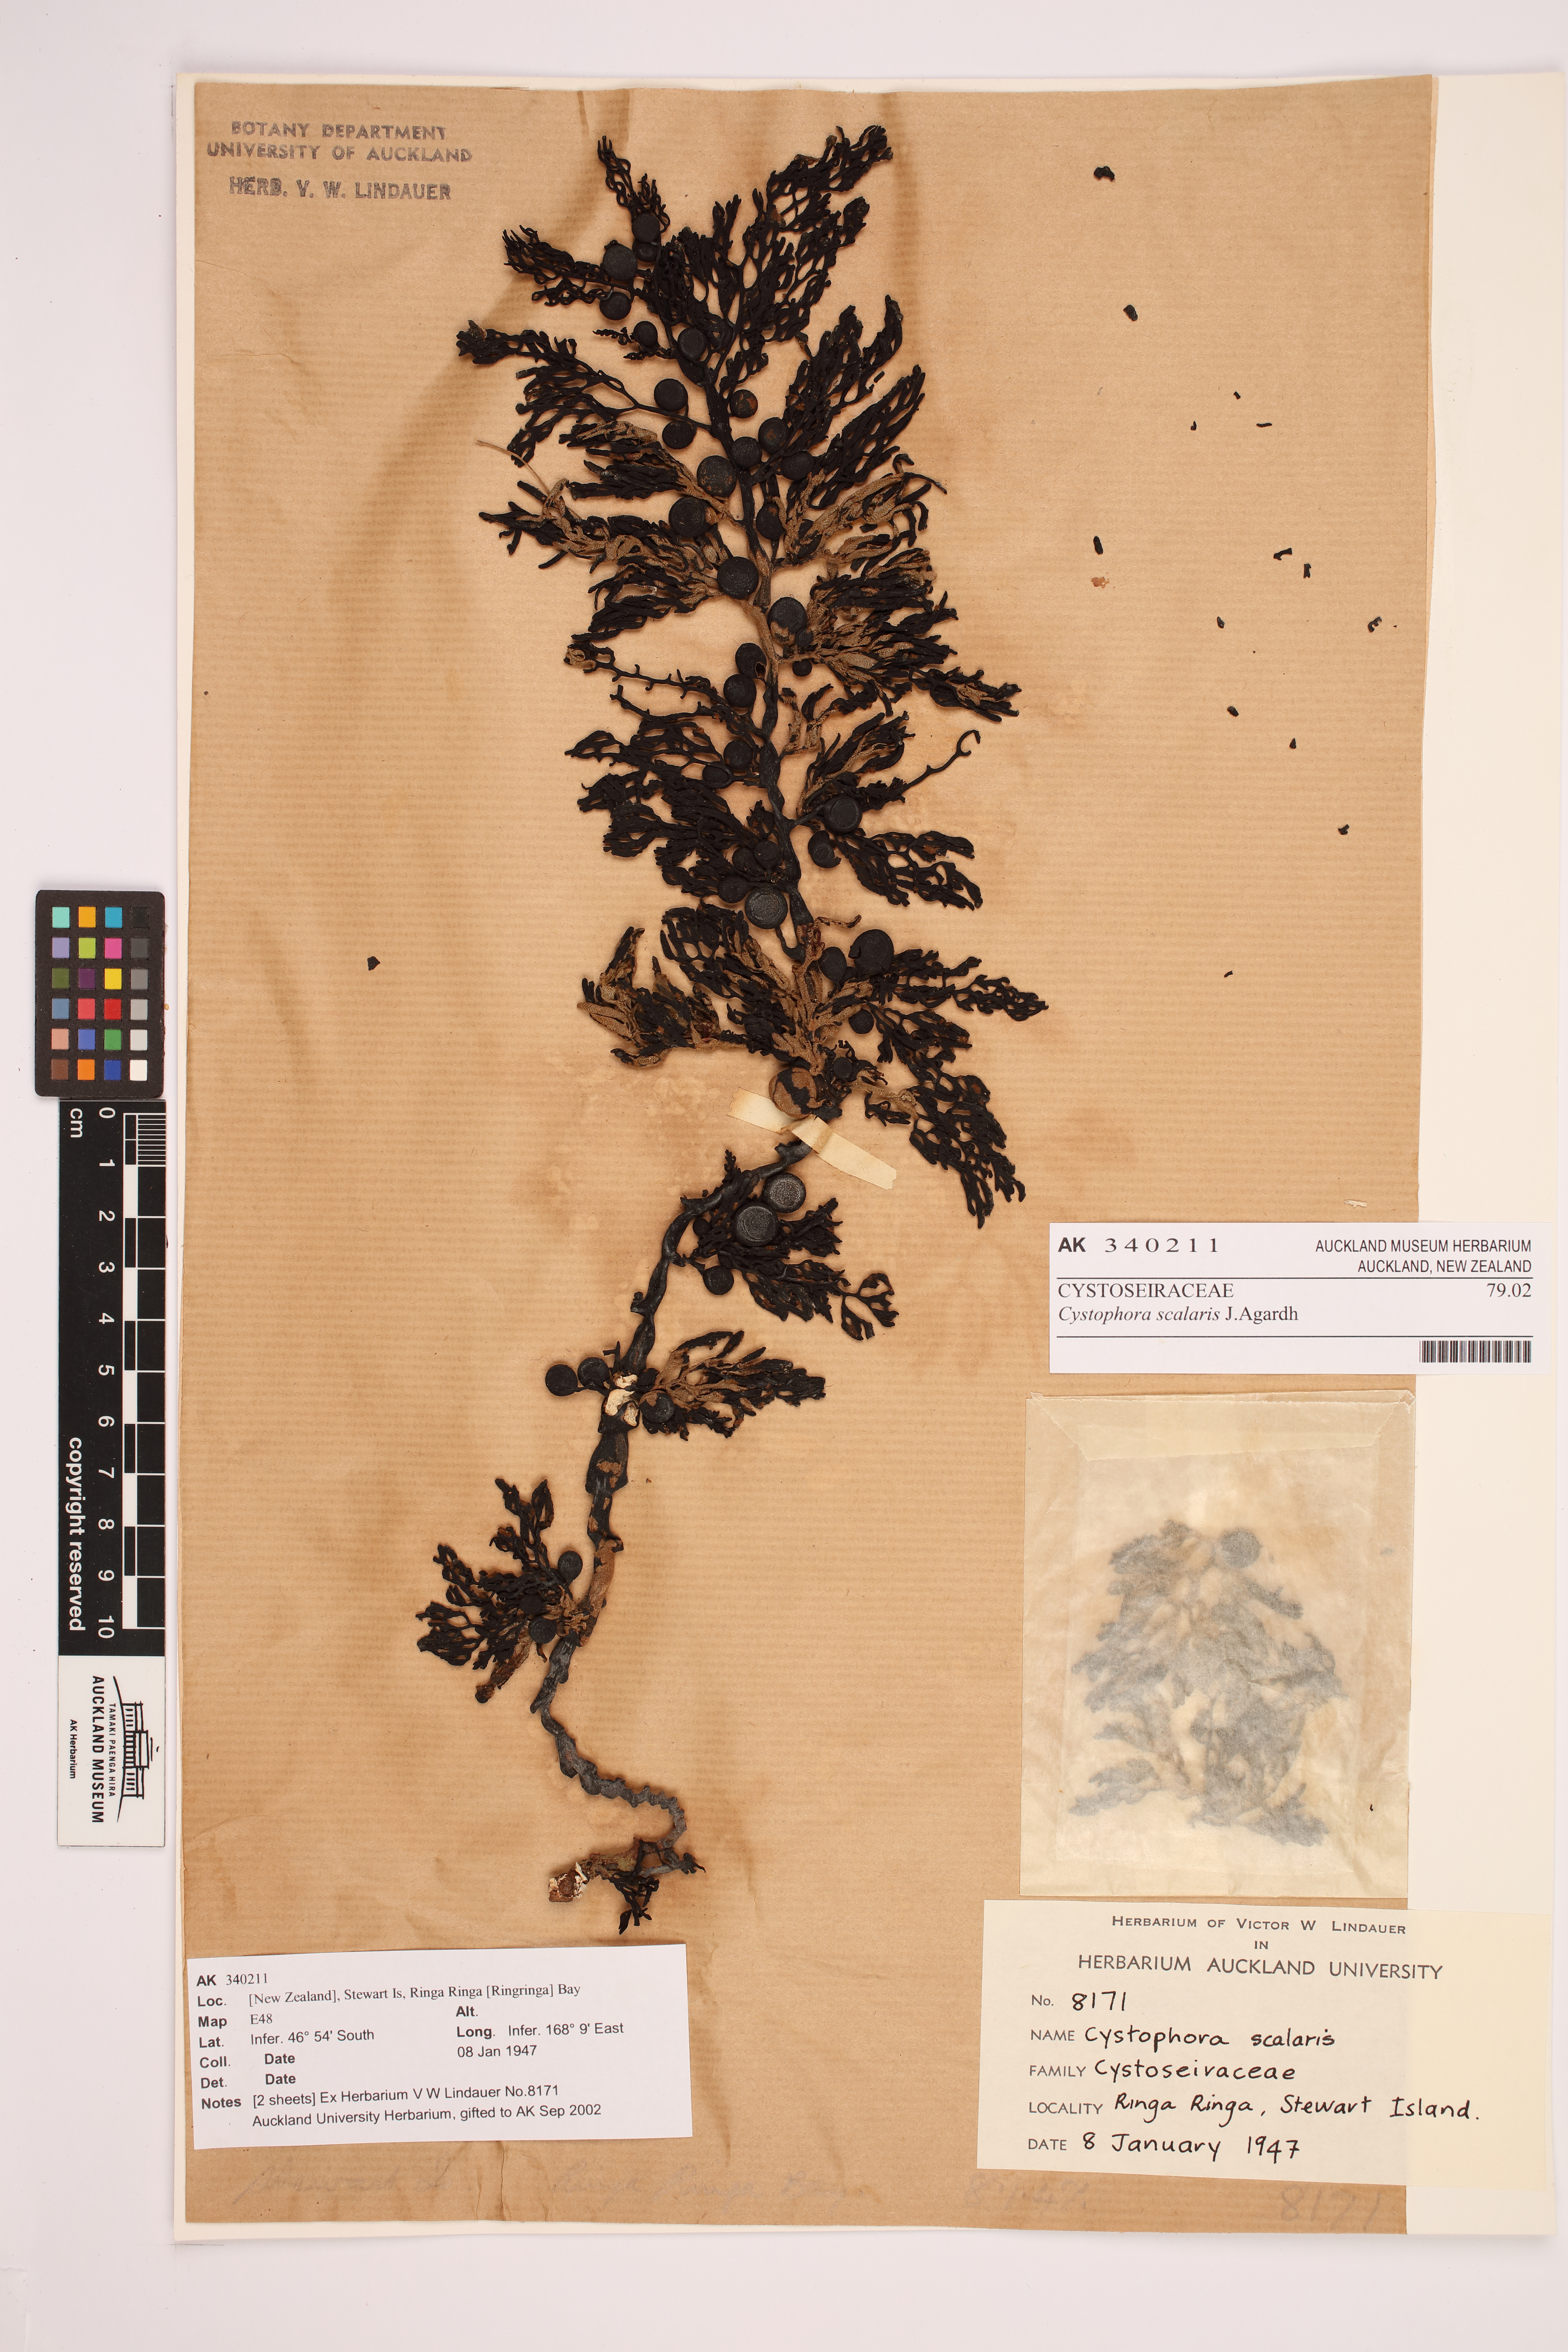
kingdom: Chromista
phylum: Ochrophyta
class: Phaeophyceae
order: Fucales
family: Sargassaceae
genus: Cystophora
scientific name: Cystophora scalaris
